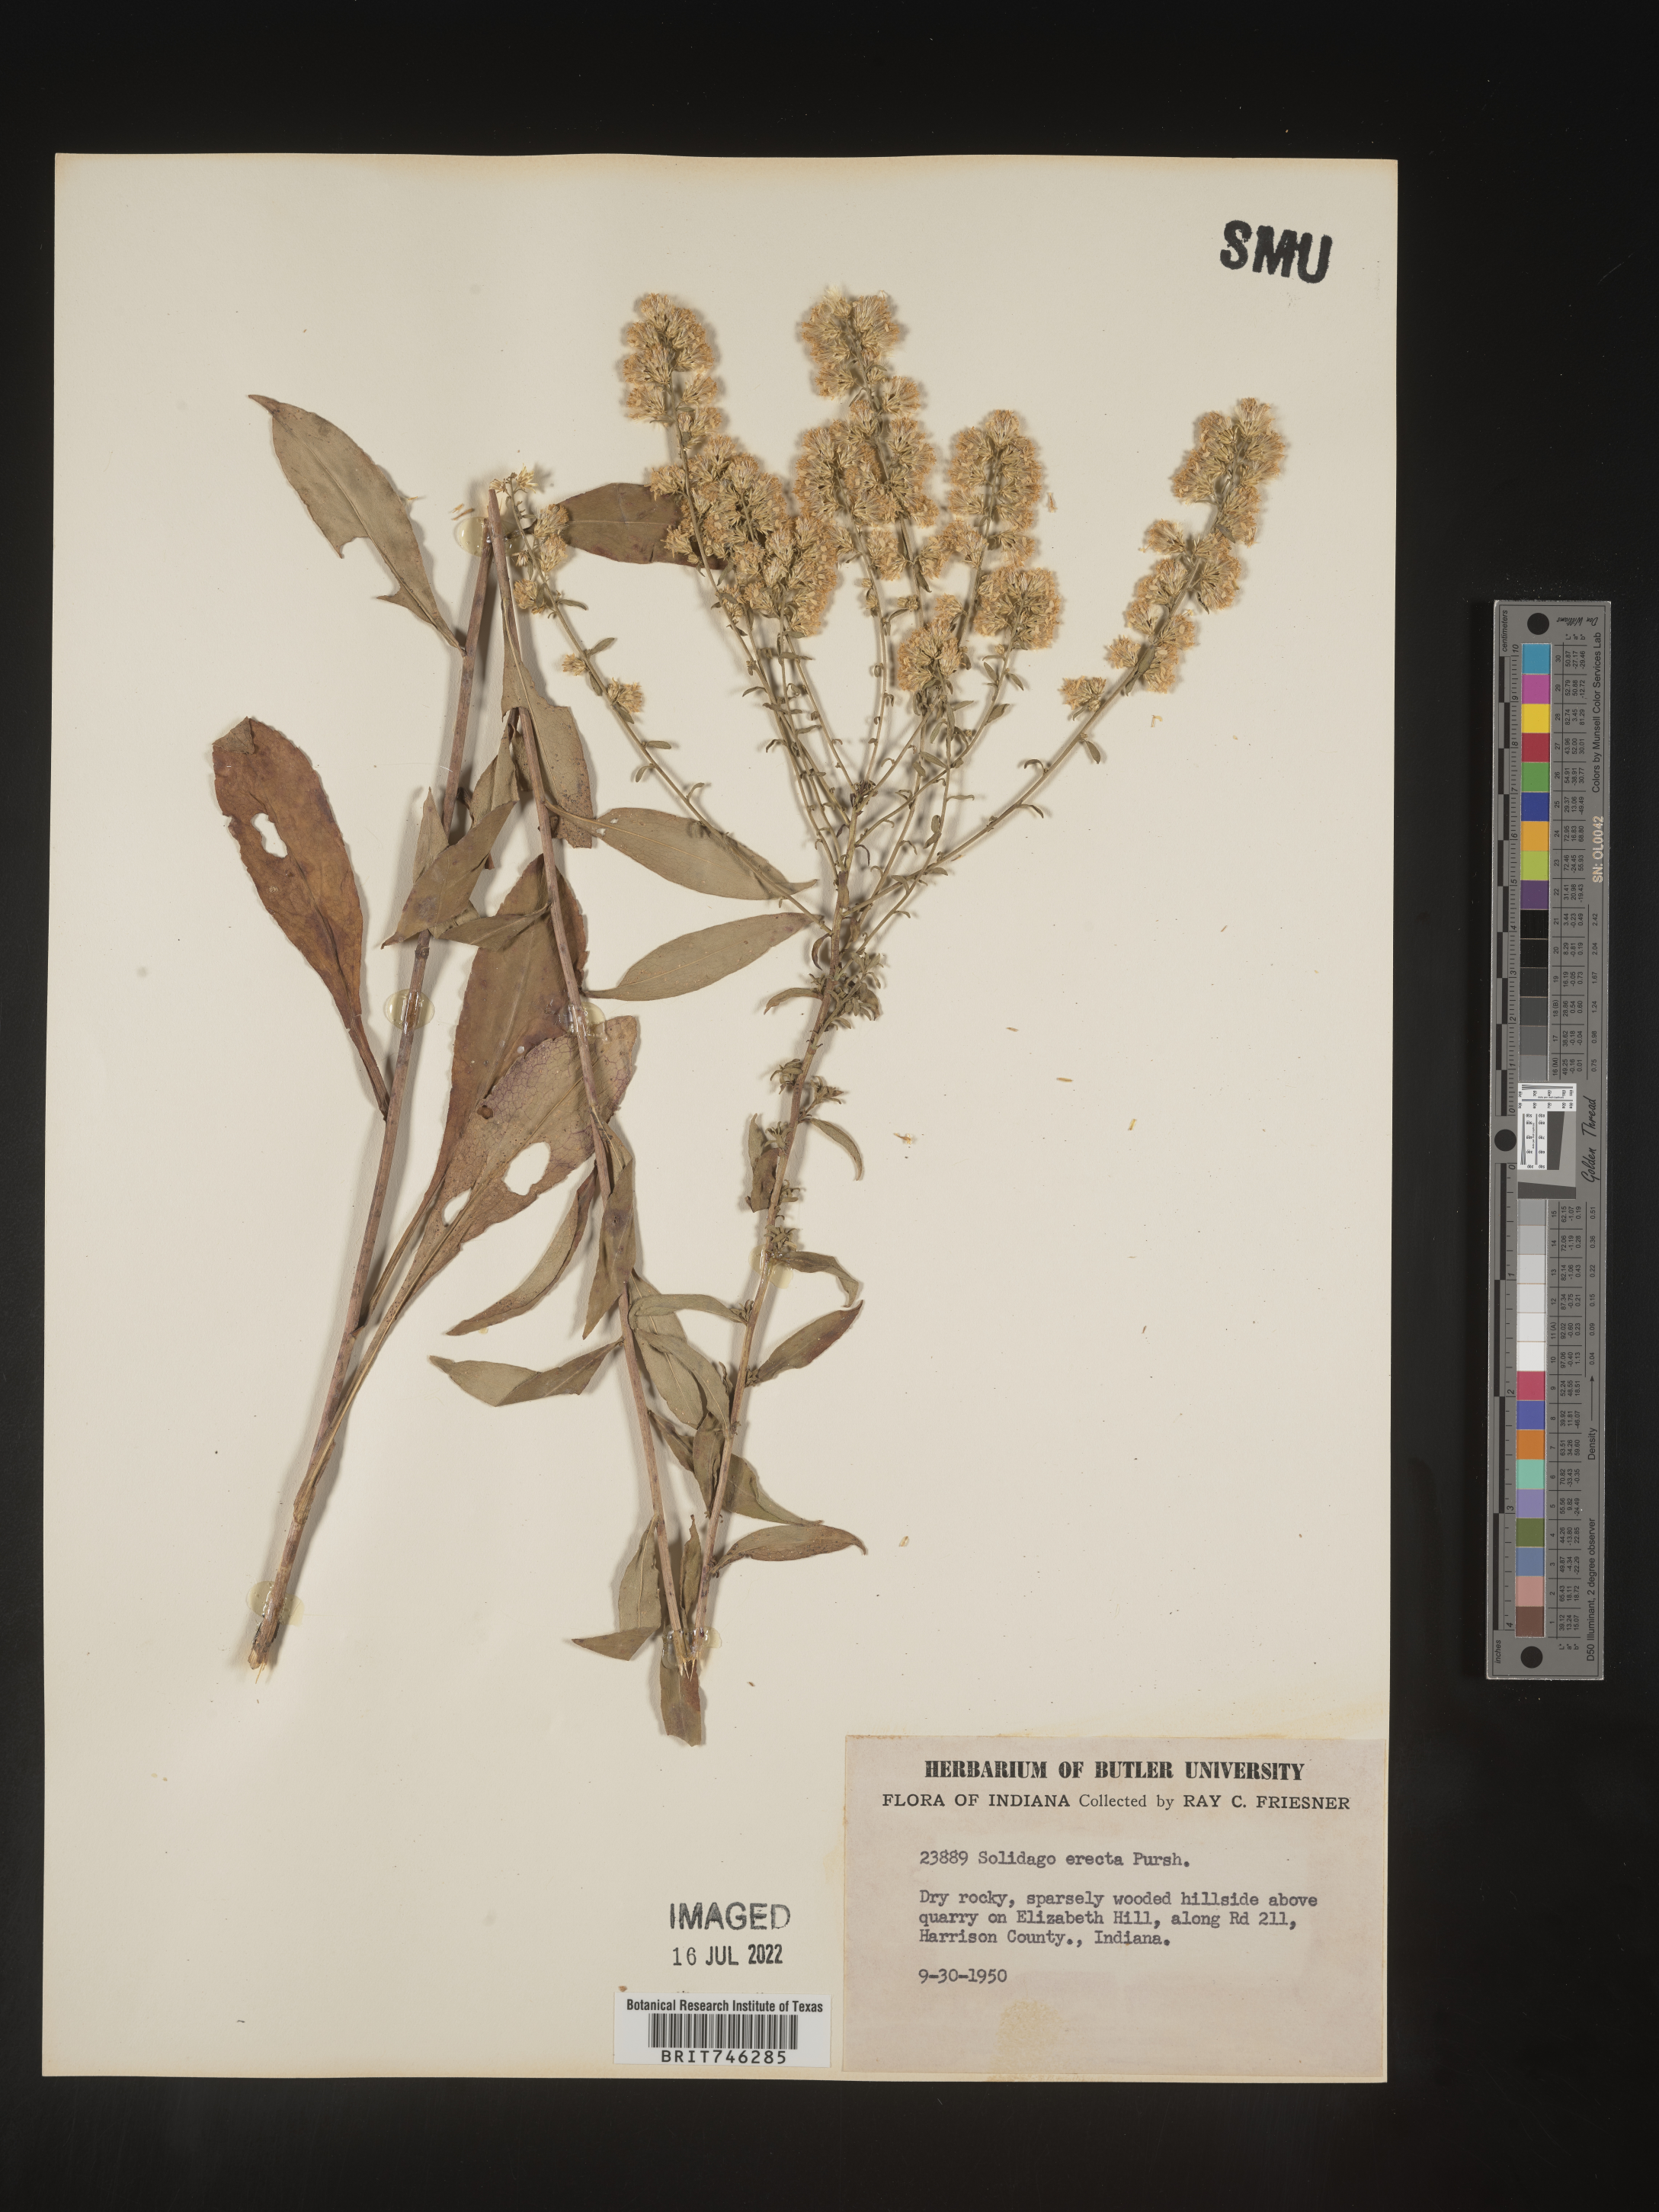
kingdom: Plantae
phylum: Tracheophyta
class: Magnoliopsida
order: Asterales
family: Asteraceae
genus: Solidago
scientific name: Solidago erecta
